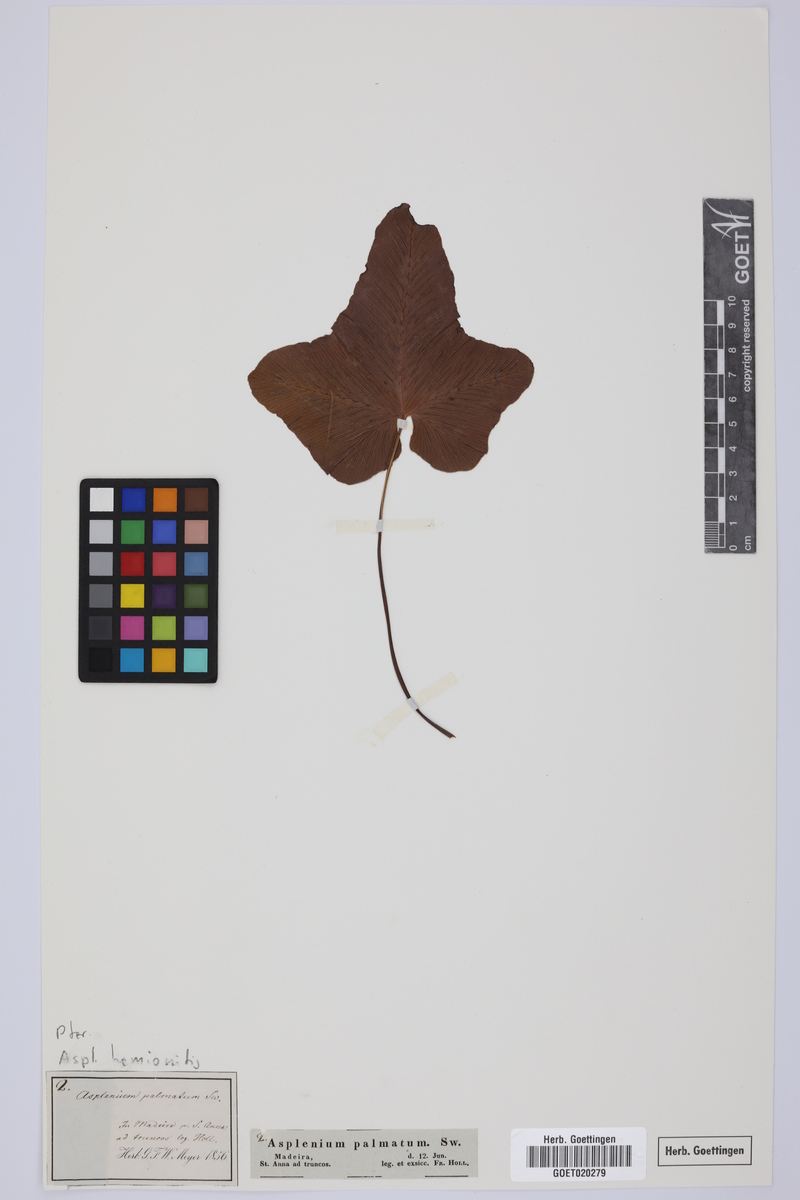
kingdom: Plantae
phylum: Tracheophyta
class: Polypodiopsida
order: Polypodiales
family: Aspleniaceae
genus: Asplenium
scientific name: Asplenium hemionitis
